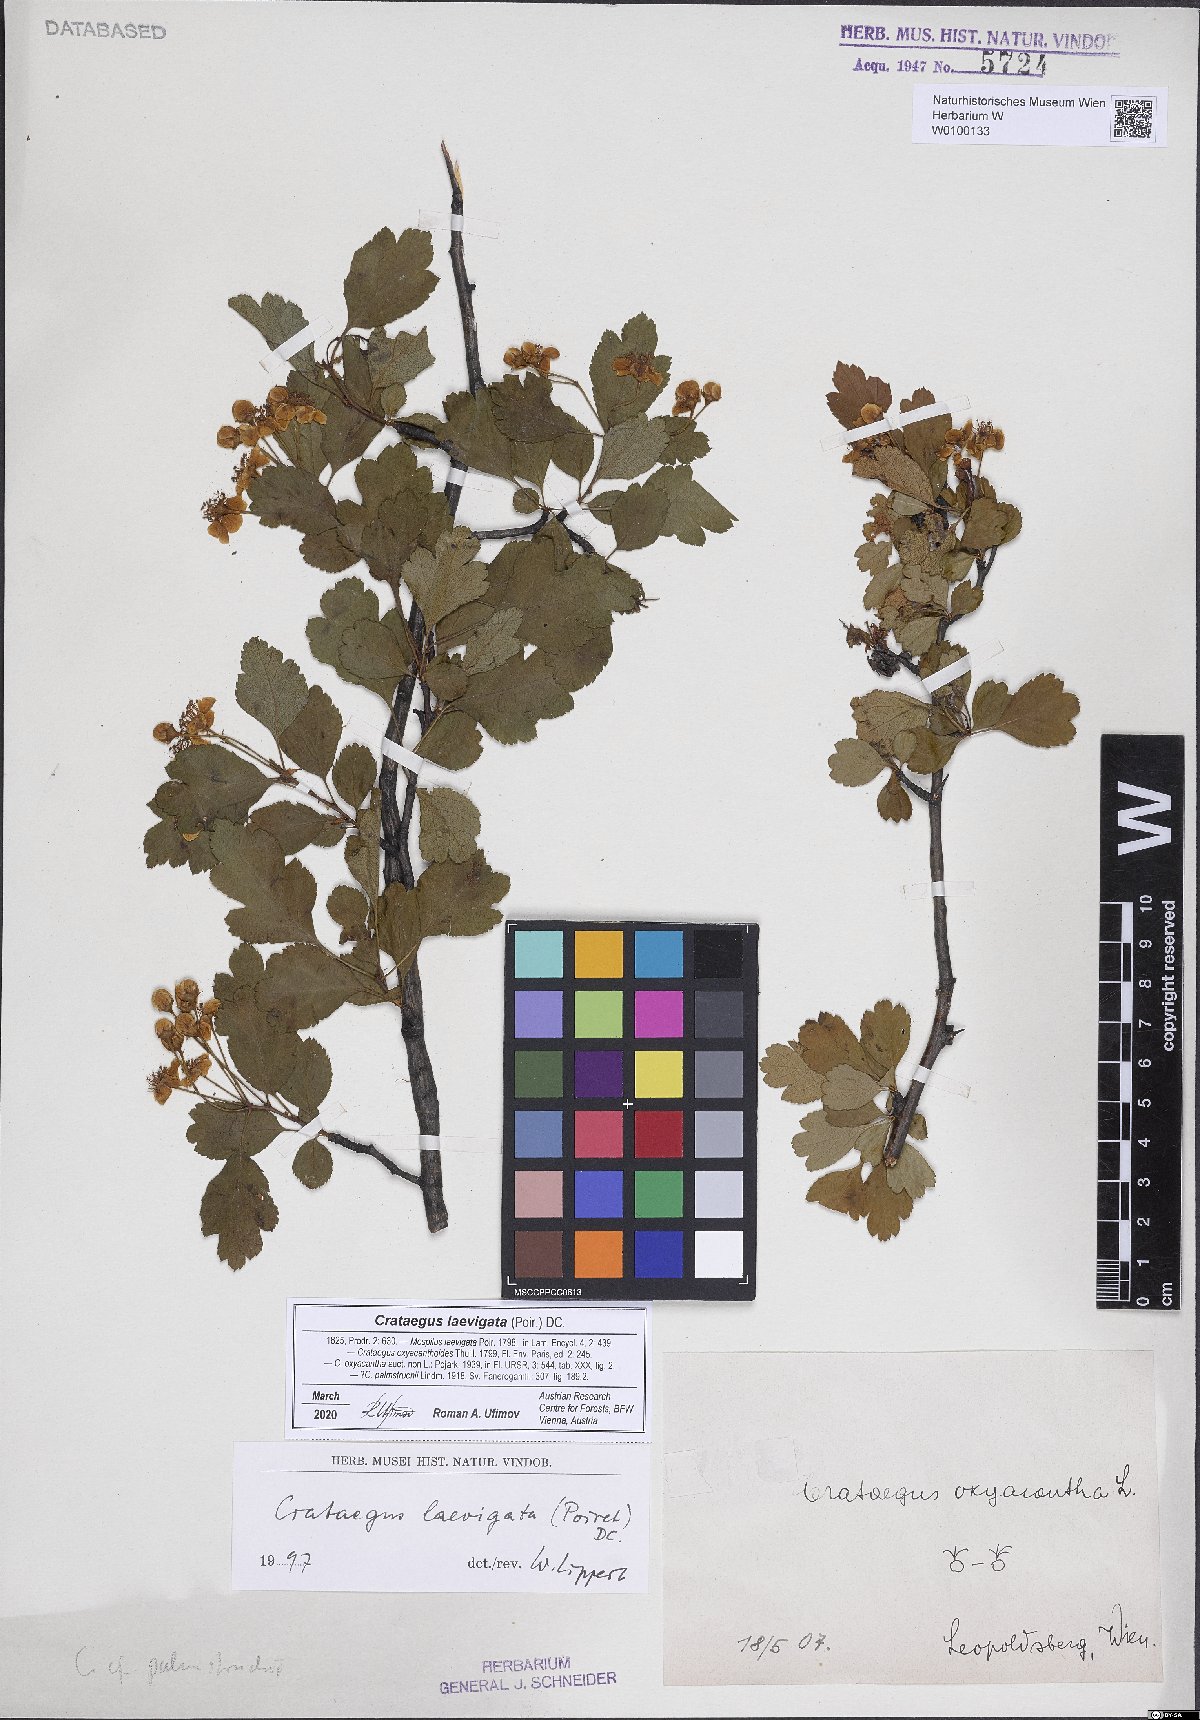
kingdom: Plantae
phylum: Tracheophyta
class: Magnoliopsida
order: Rosales
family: Rosaceae
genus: Crataegus
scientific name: Crataegus laevigata
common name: Midland hawthorn
